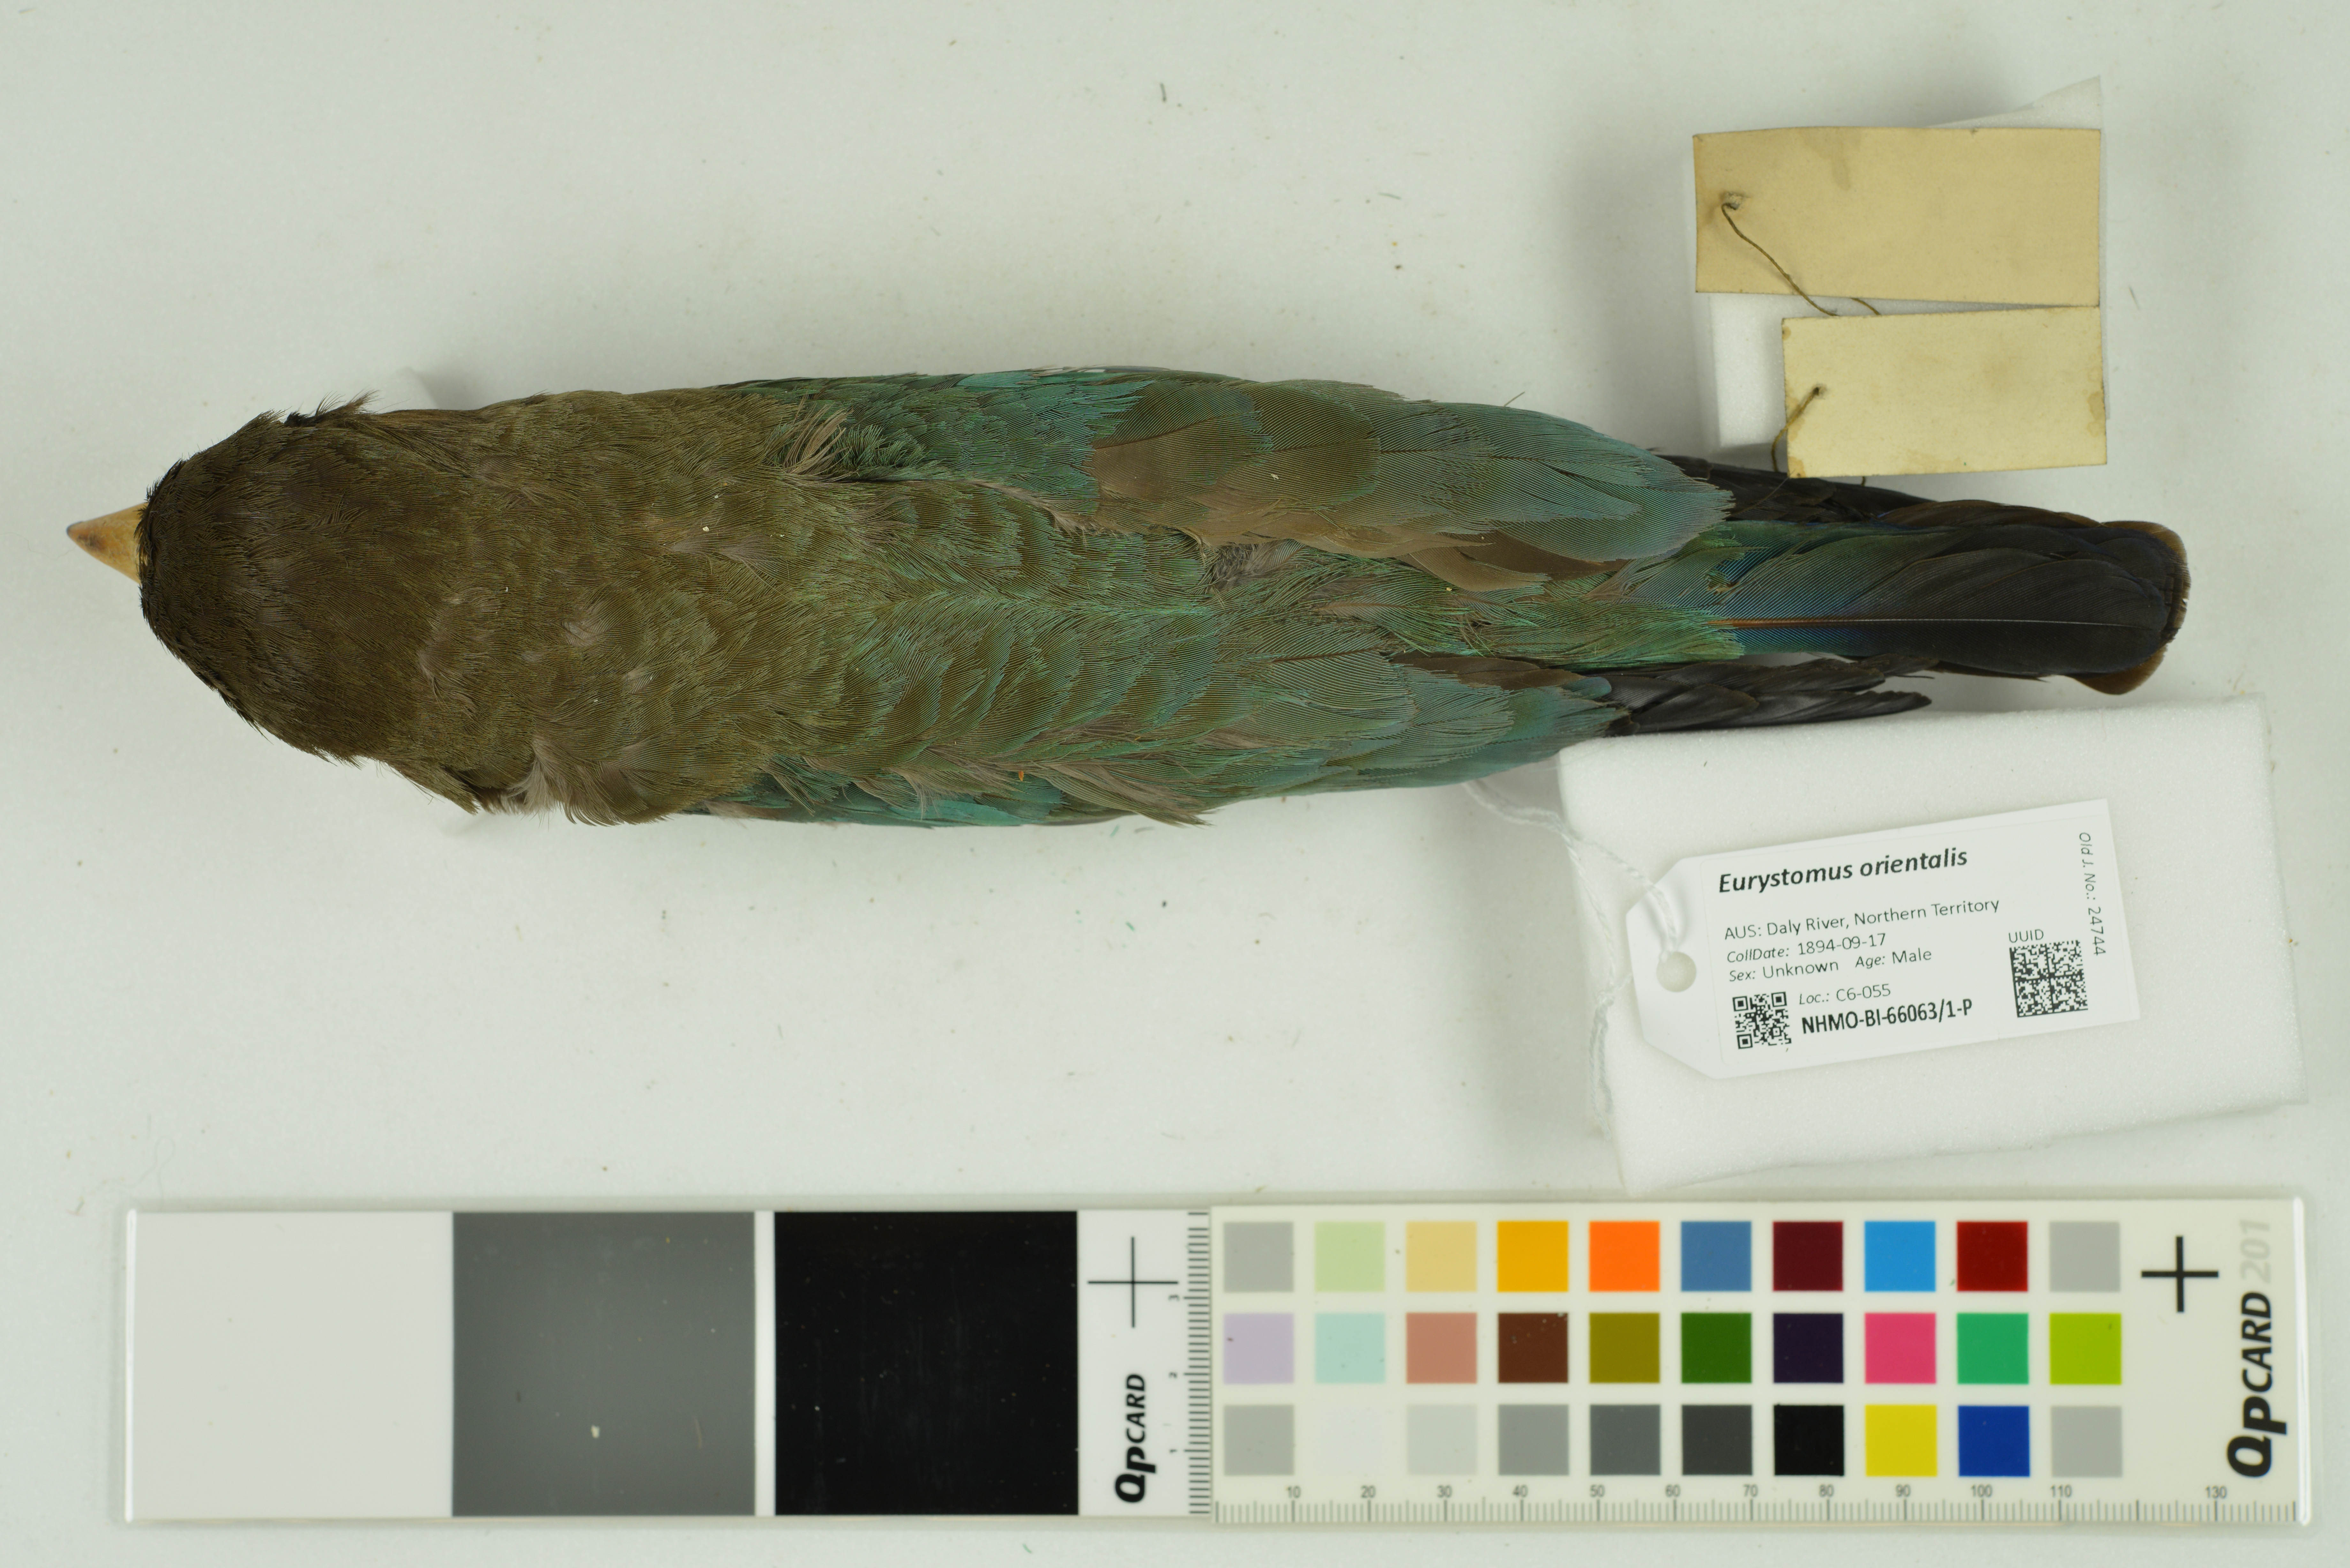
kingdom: Animalia
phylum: Chordata
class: Aves
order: Coraciiformes
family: Coraciidae
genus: Eurystomus
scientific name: Eurystomus orientalis
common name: Oriental dollarbird
